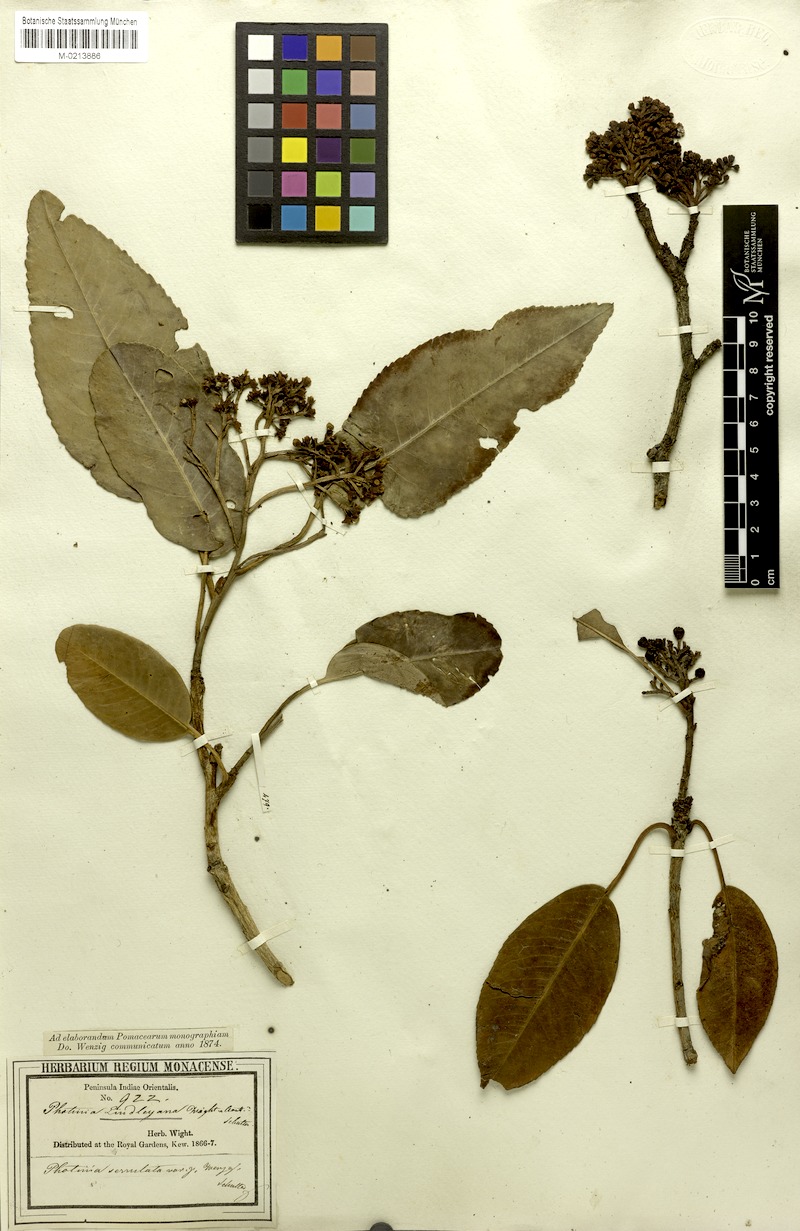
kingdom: Plantae
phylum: Tracheophyta
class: Magnoliopsida
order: Rosales
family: Rosaceae
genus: Photinia
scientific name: Photinia lindleyana
